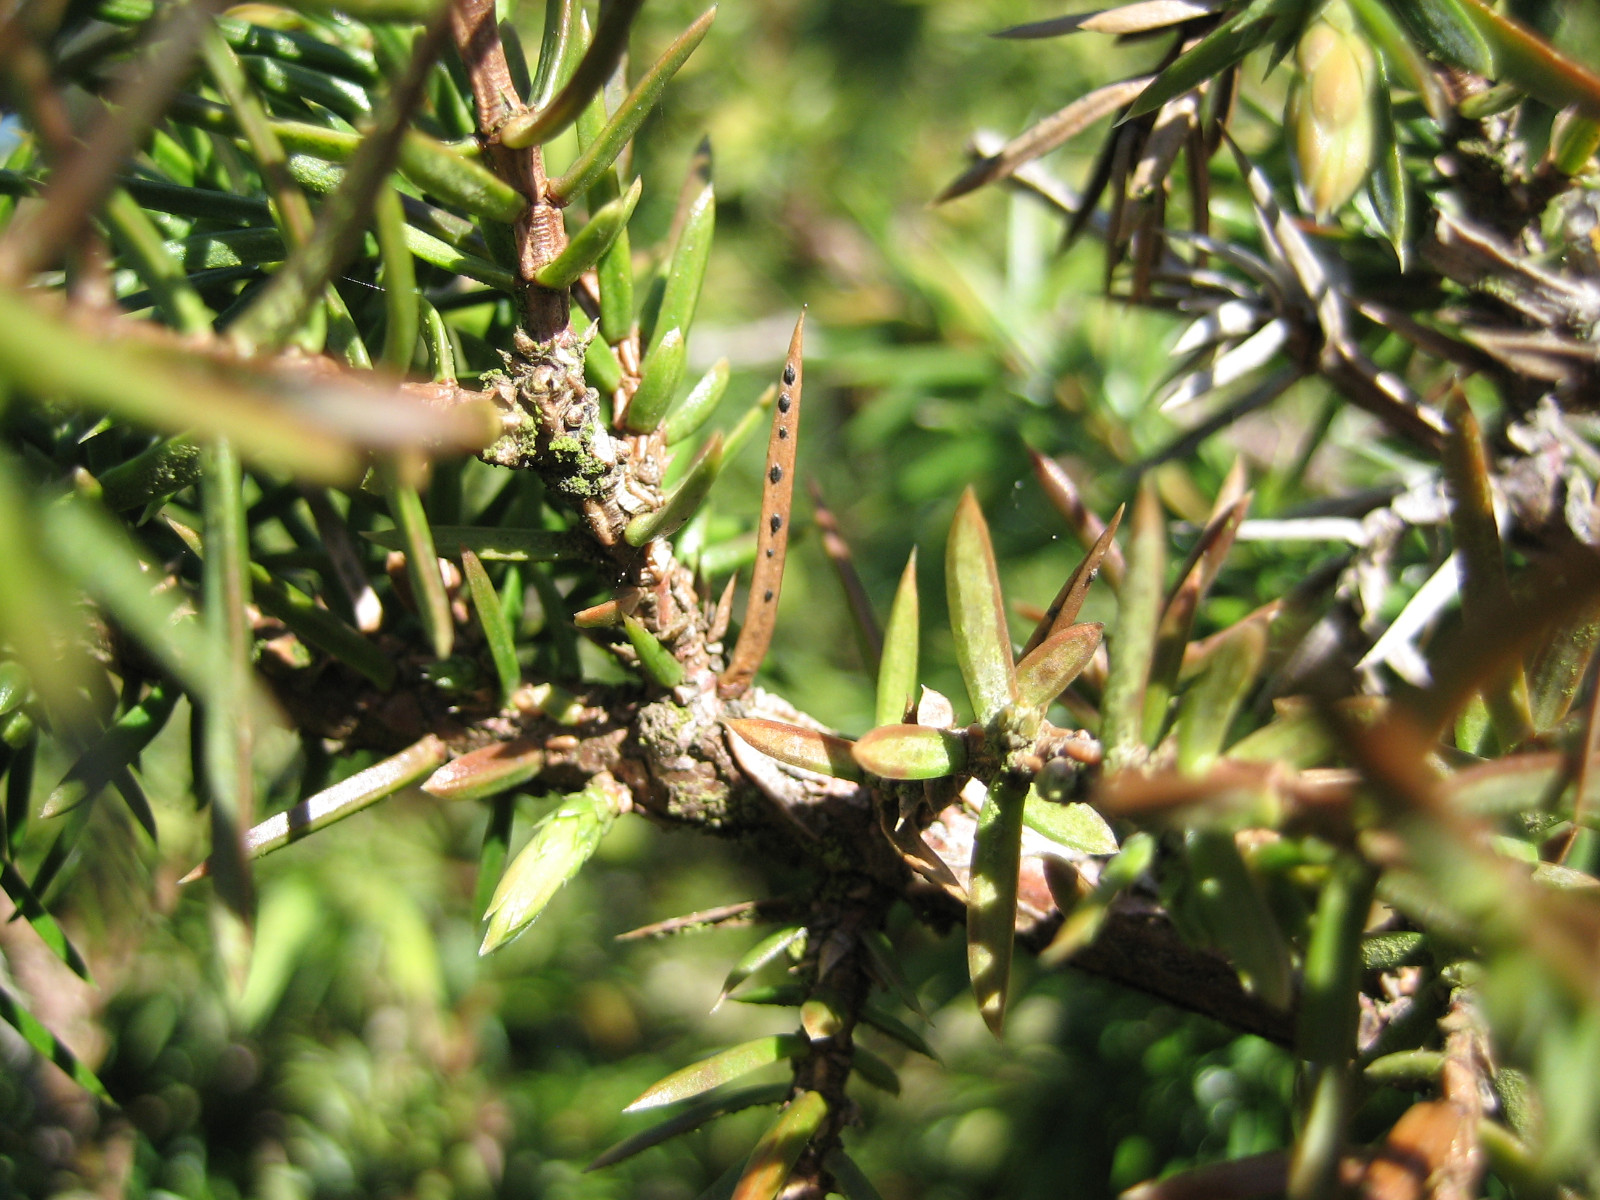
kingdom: Fungi
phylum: Ascomycota
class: Leotiomycetes
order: Rhytismatales
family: Rhytismataceae
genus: Lophodermium
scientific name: Lophodermium juniperinum
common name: ene-fureplet
